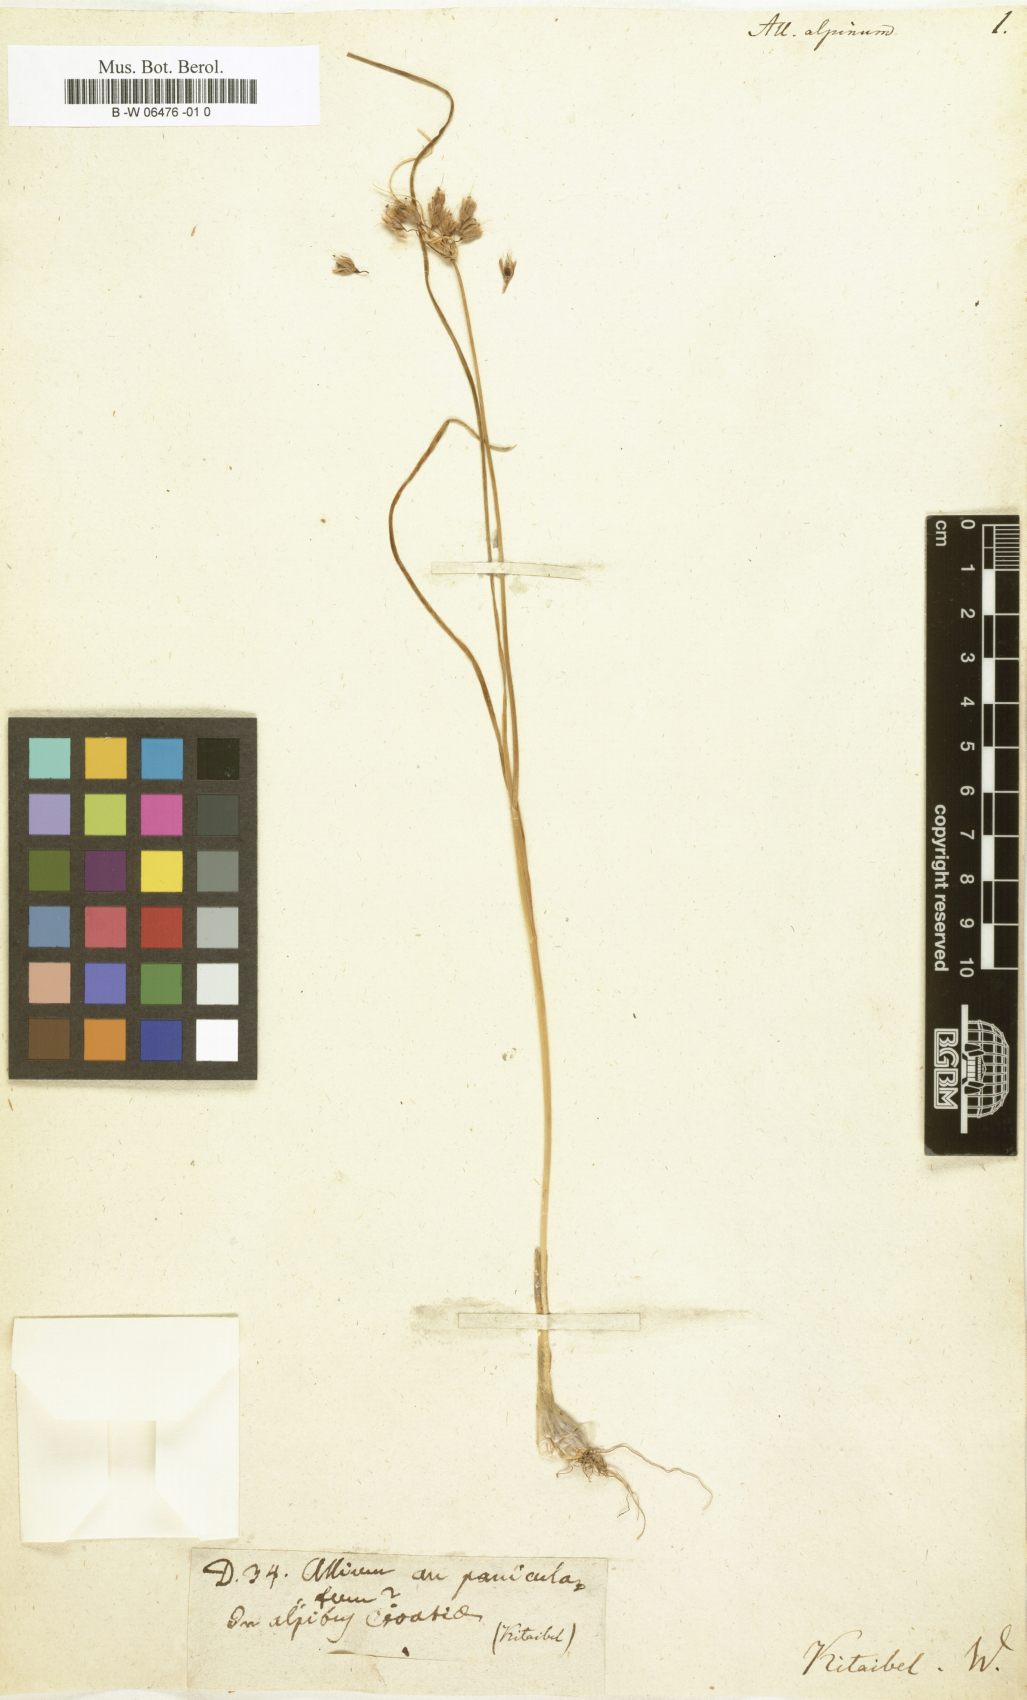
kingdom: Plantae
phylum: Tracheophyta
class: Liliopsida
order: Asparagales
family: Amaryllidaceae
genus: Allium
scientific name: Allium schoenoprasum
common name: Chives
